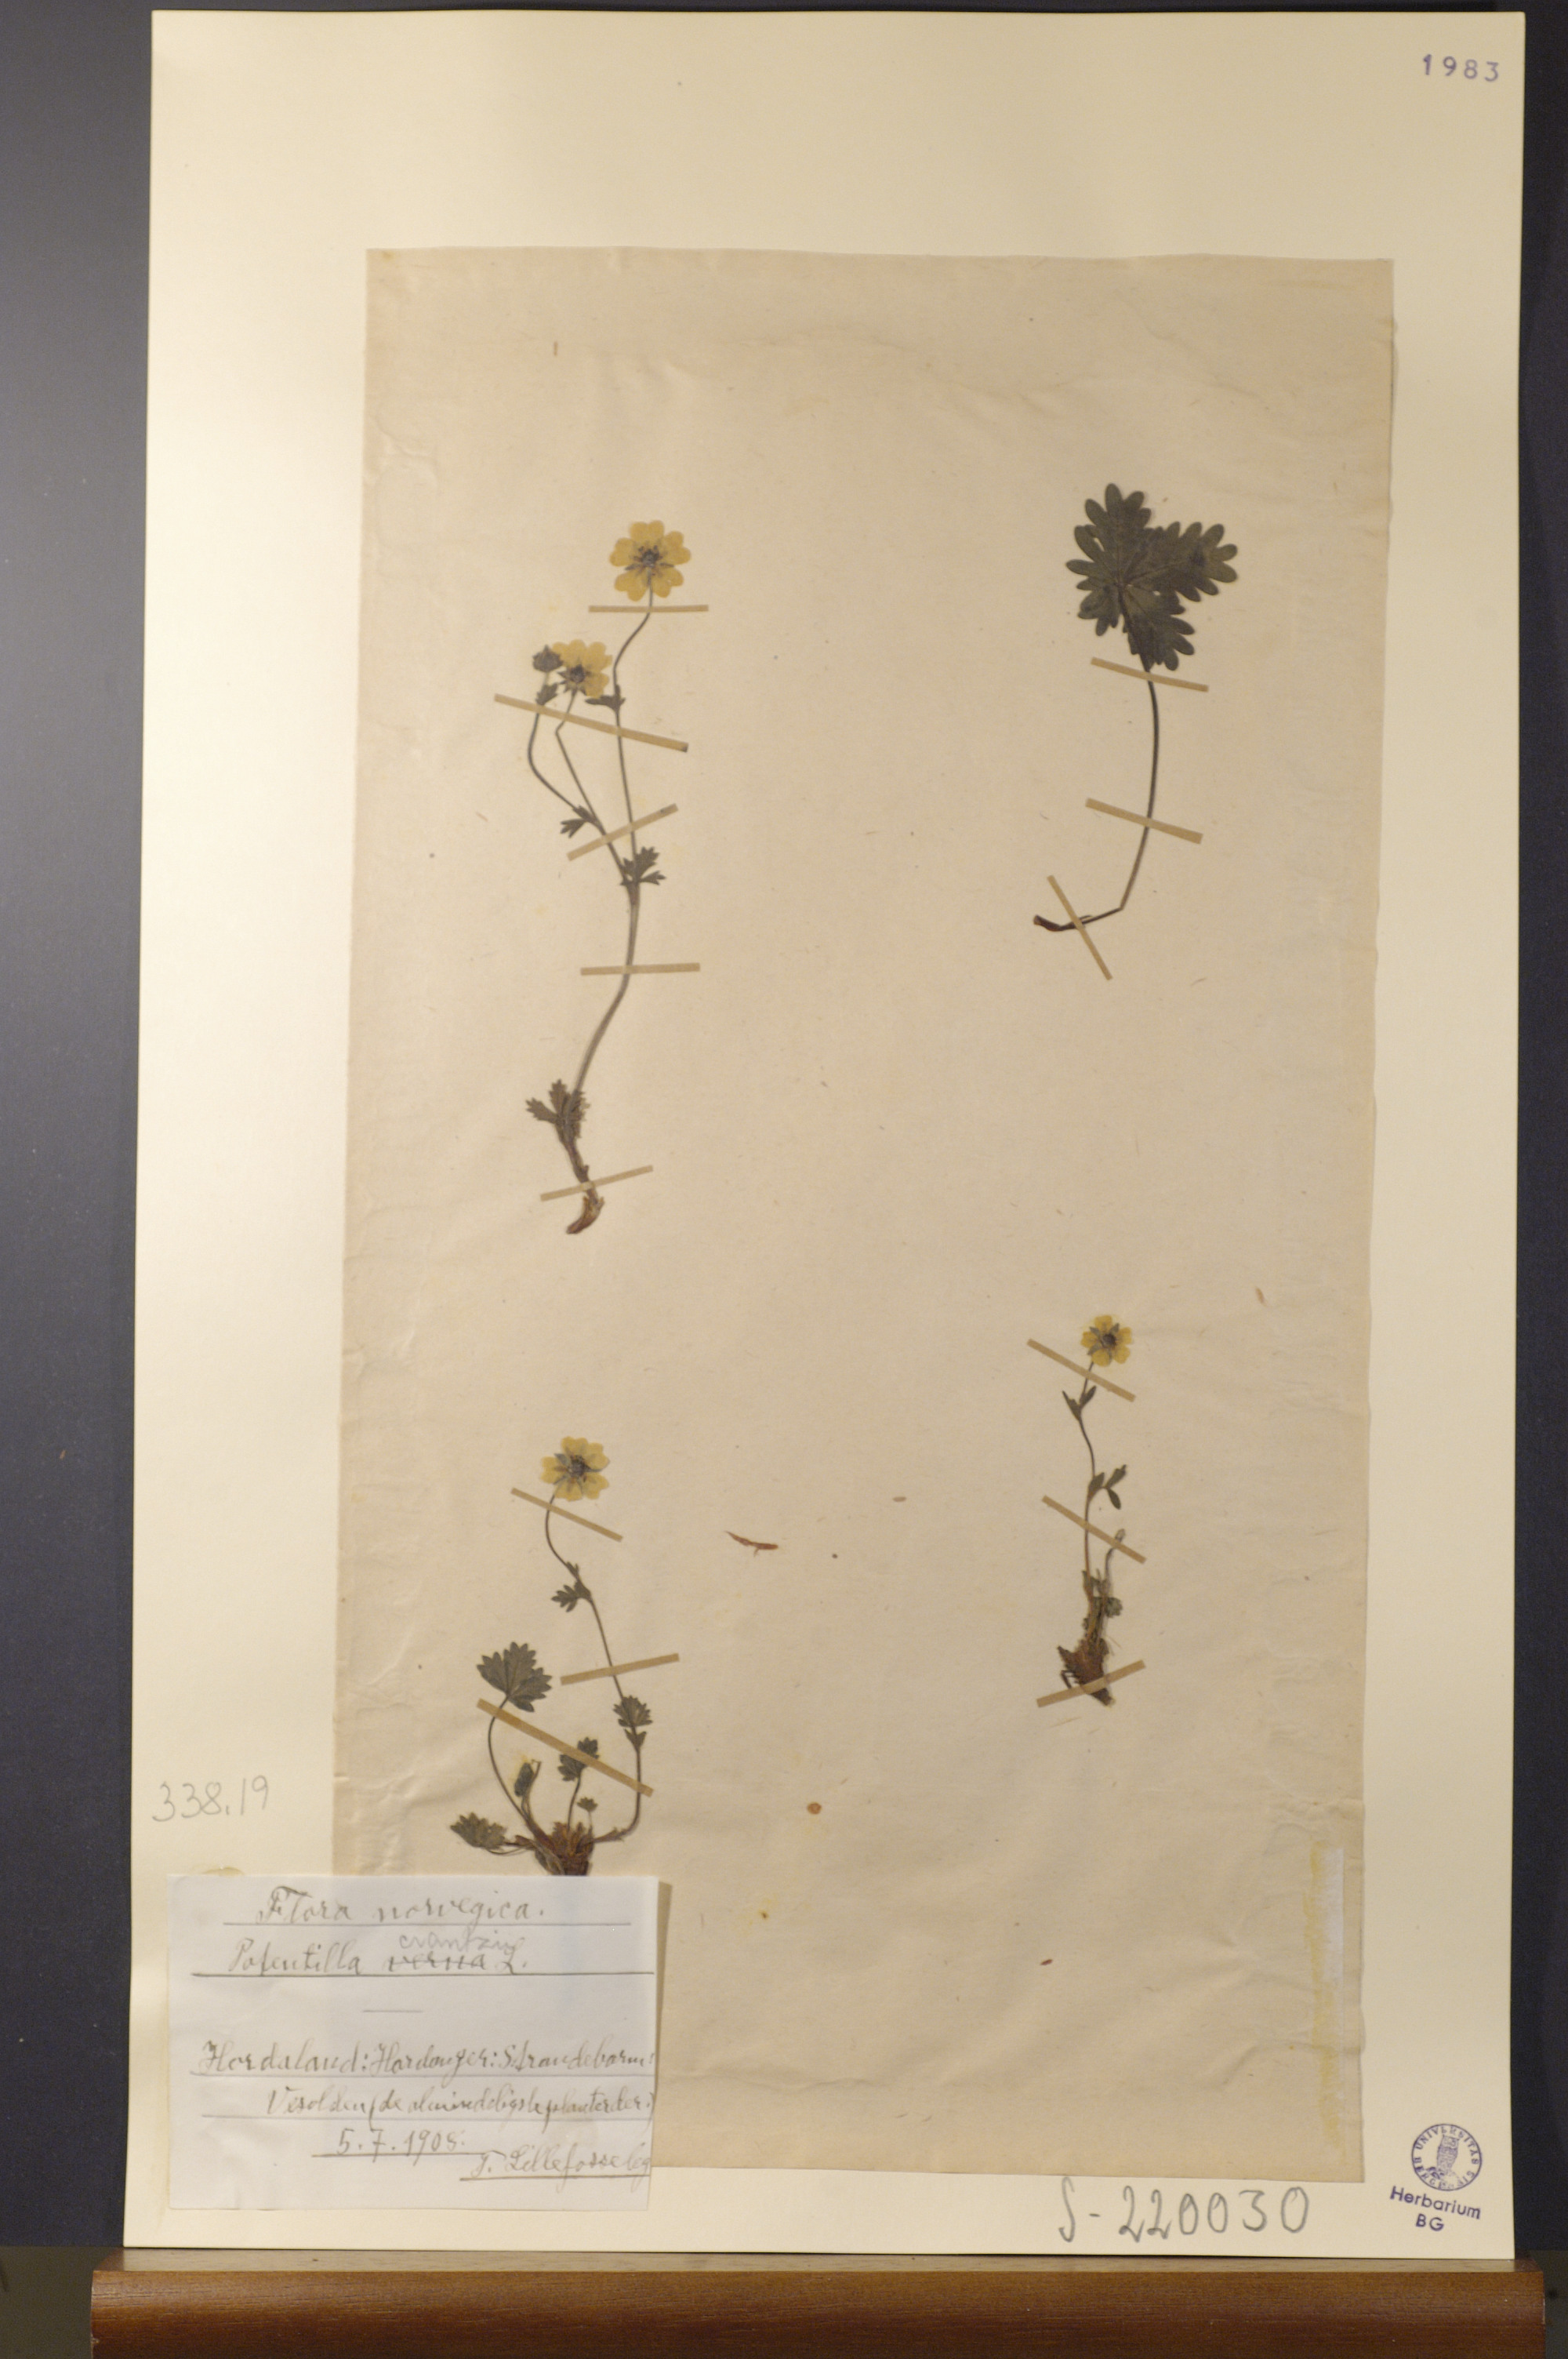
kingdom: Plantae
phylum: Tracheophyta
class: Magnoliopsida
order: Rosales
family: Rosaceae
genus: Potentilla
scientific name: Potentilla verna
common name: Spring cinquefoil
